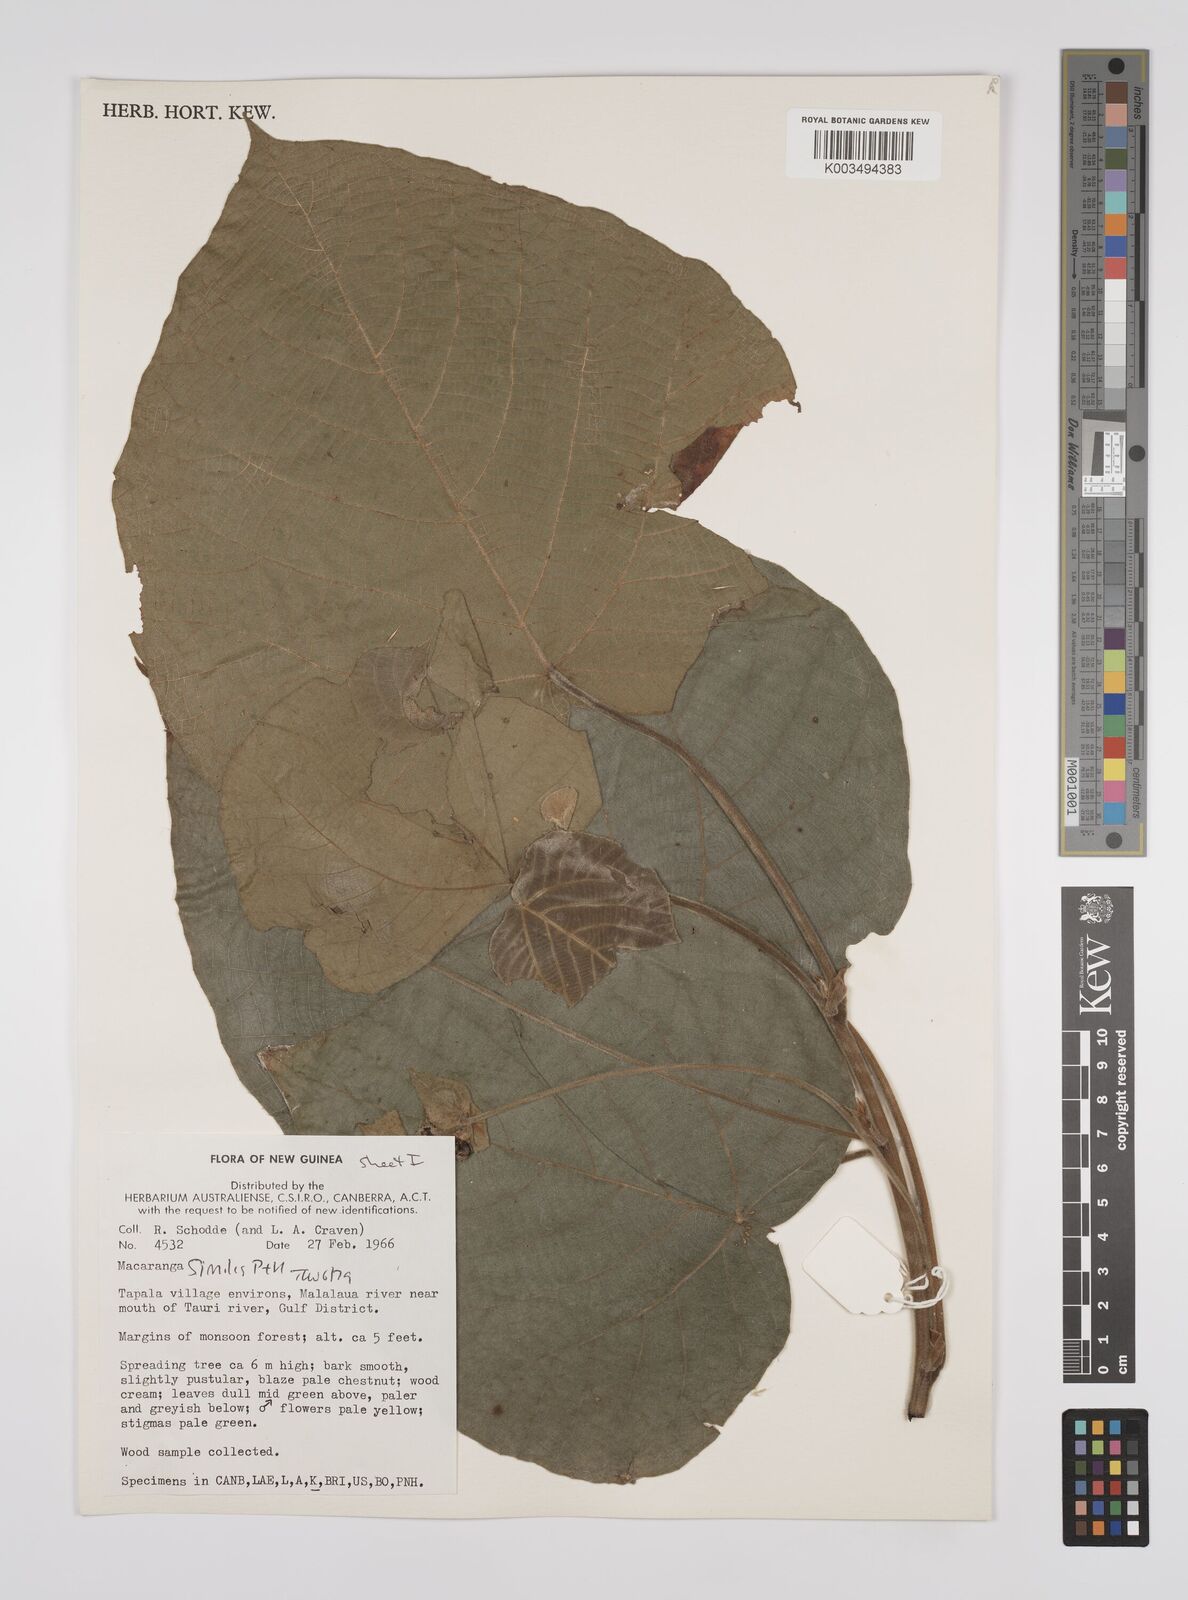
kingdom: Plantae
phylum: Tracheophyta
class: Magnoliopsida
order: Malpighiales
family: Euphorbiaceae
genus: Macaranga
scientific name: Macaranga similis
